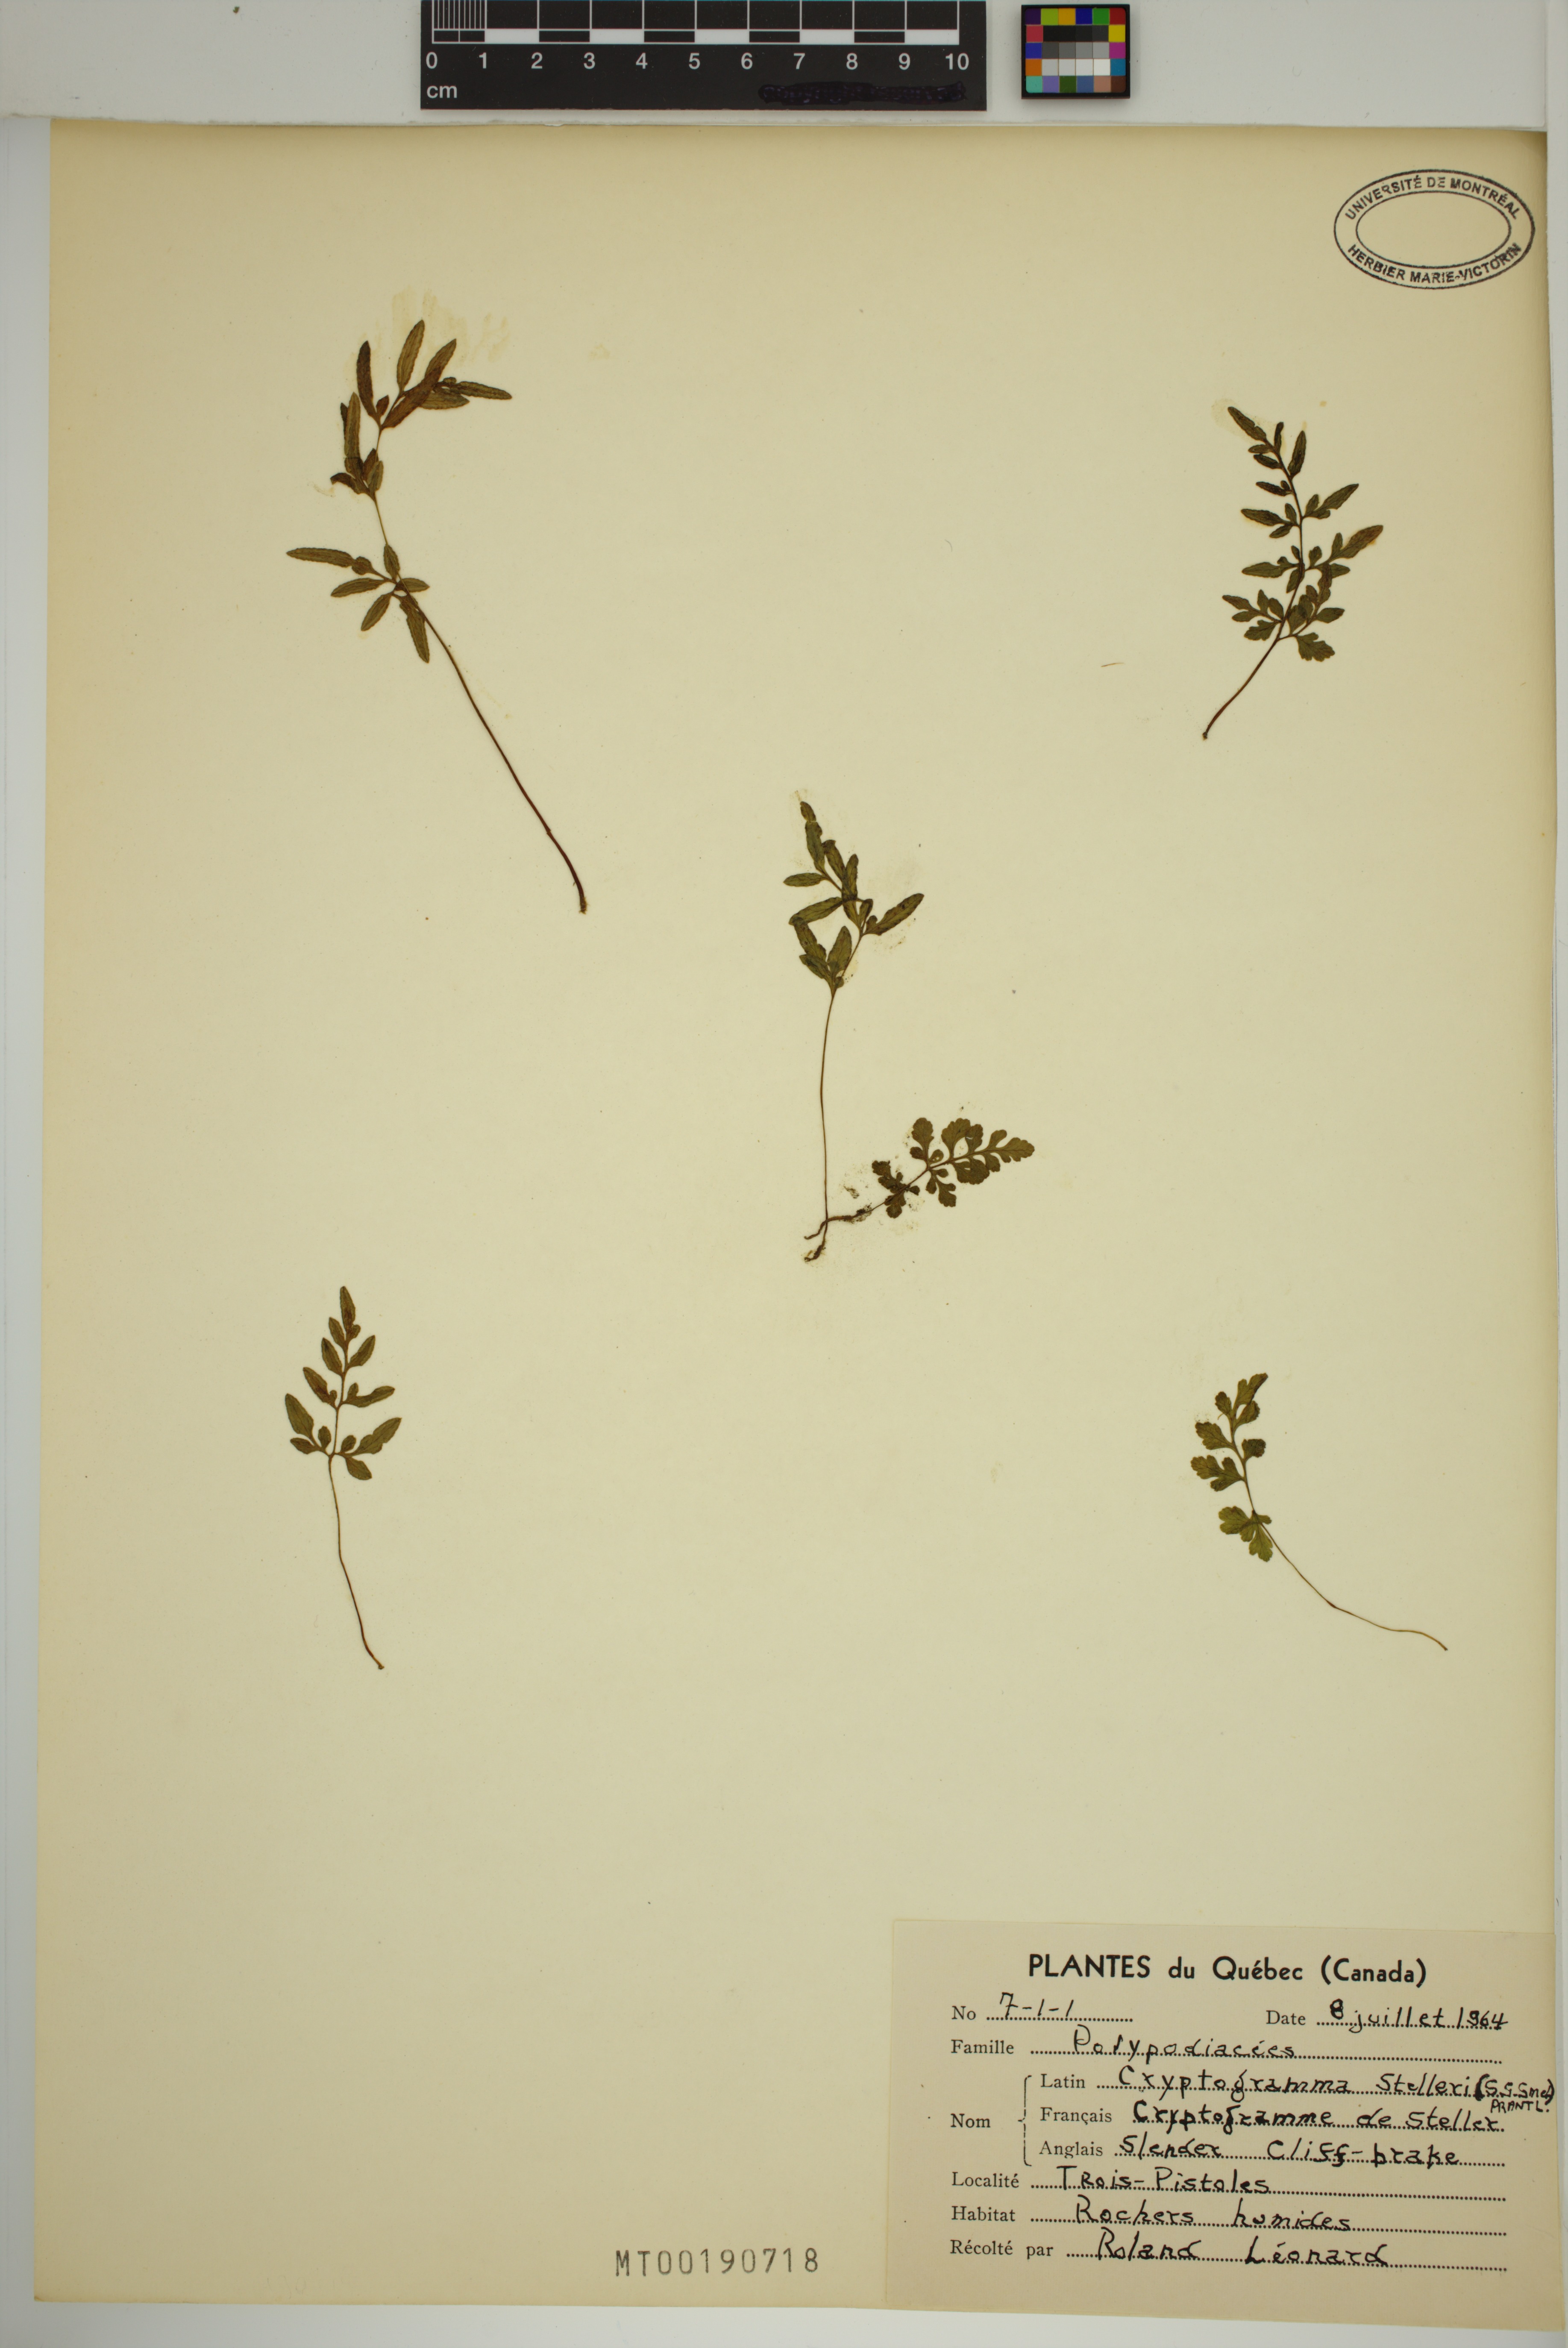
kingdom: Plantae
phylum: Tracheophyta
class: Polypodiopsida
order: Polypodiales
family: Pteridaceae
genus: Cryptogramma
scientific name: Cryptogramma stelleri
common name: Cliff-brake
